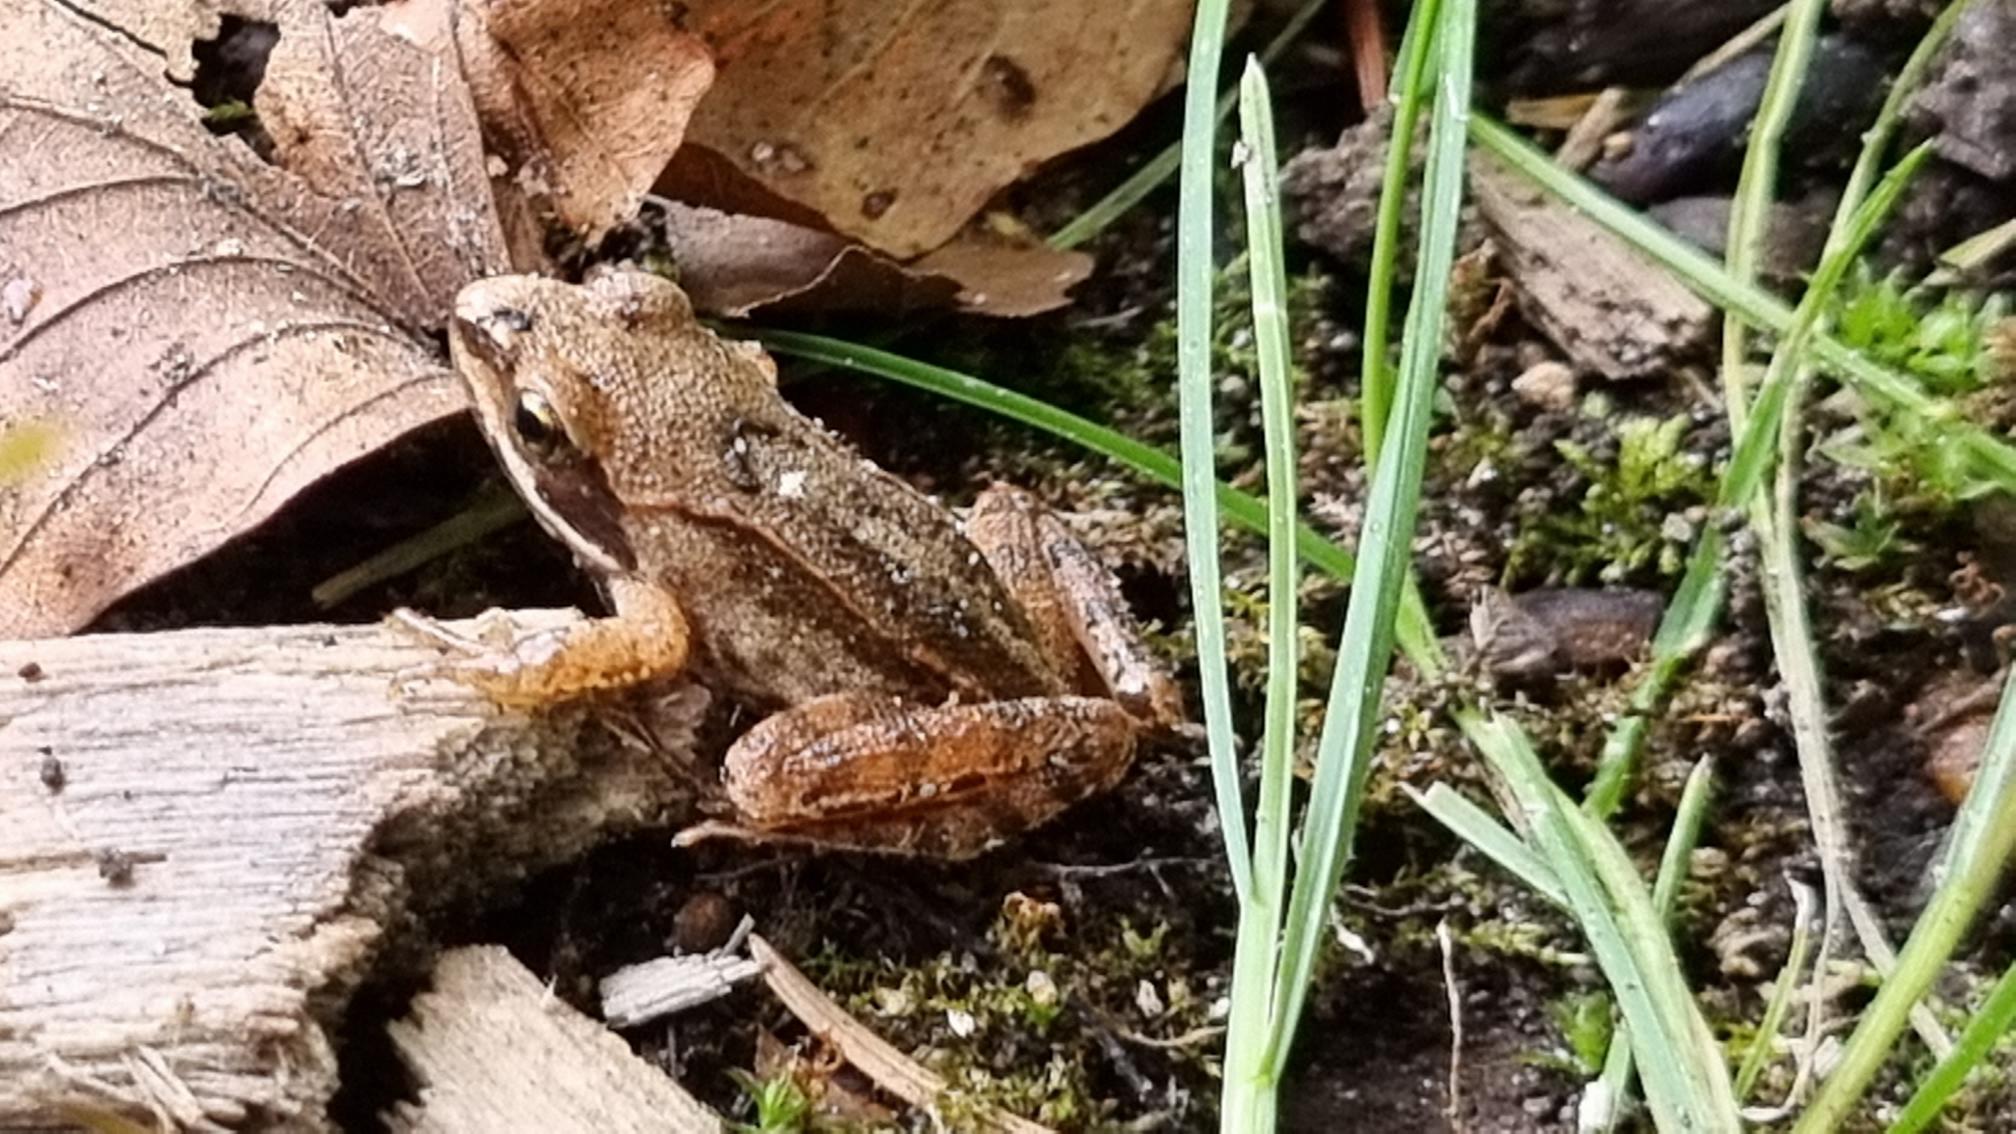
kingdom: Animalia
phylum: Chordata
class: Amphibia
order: Anura
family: Ranidae
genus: Rana
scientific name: Rana dalmatina
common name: Springfrø
